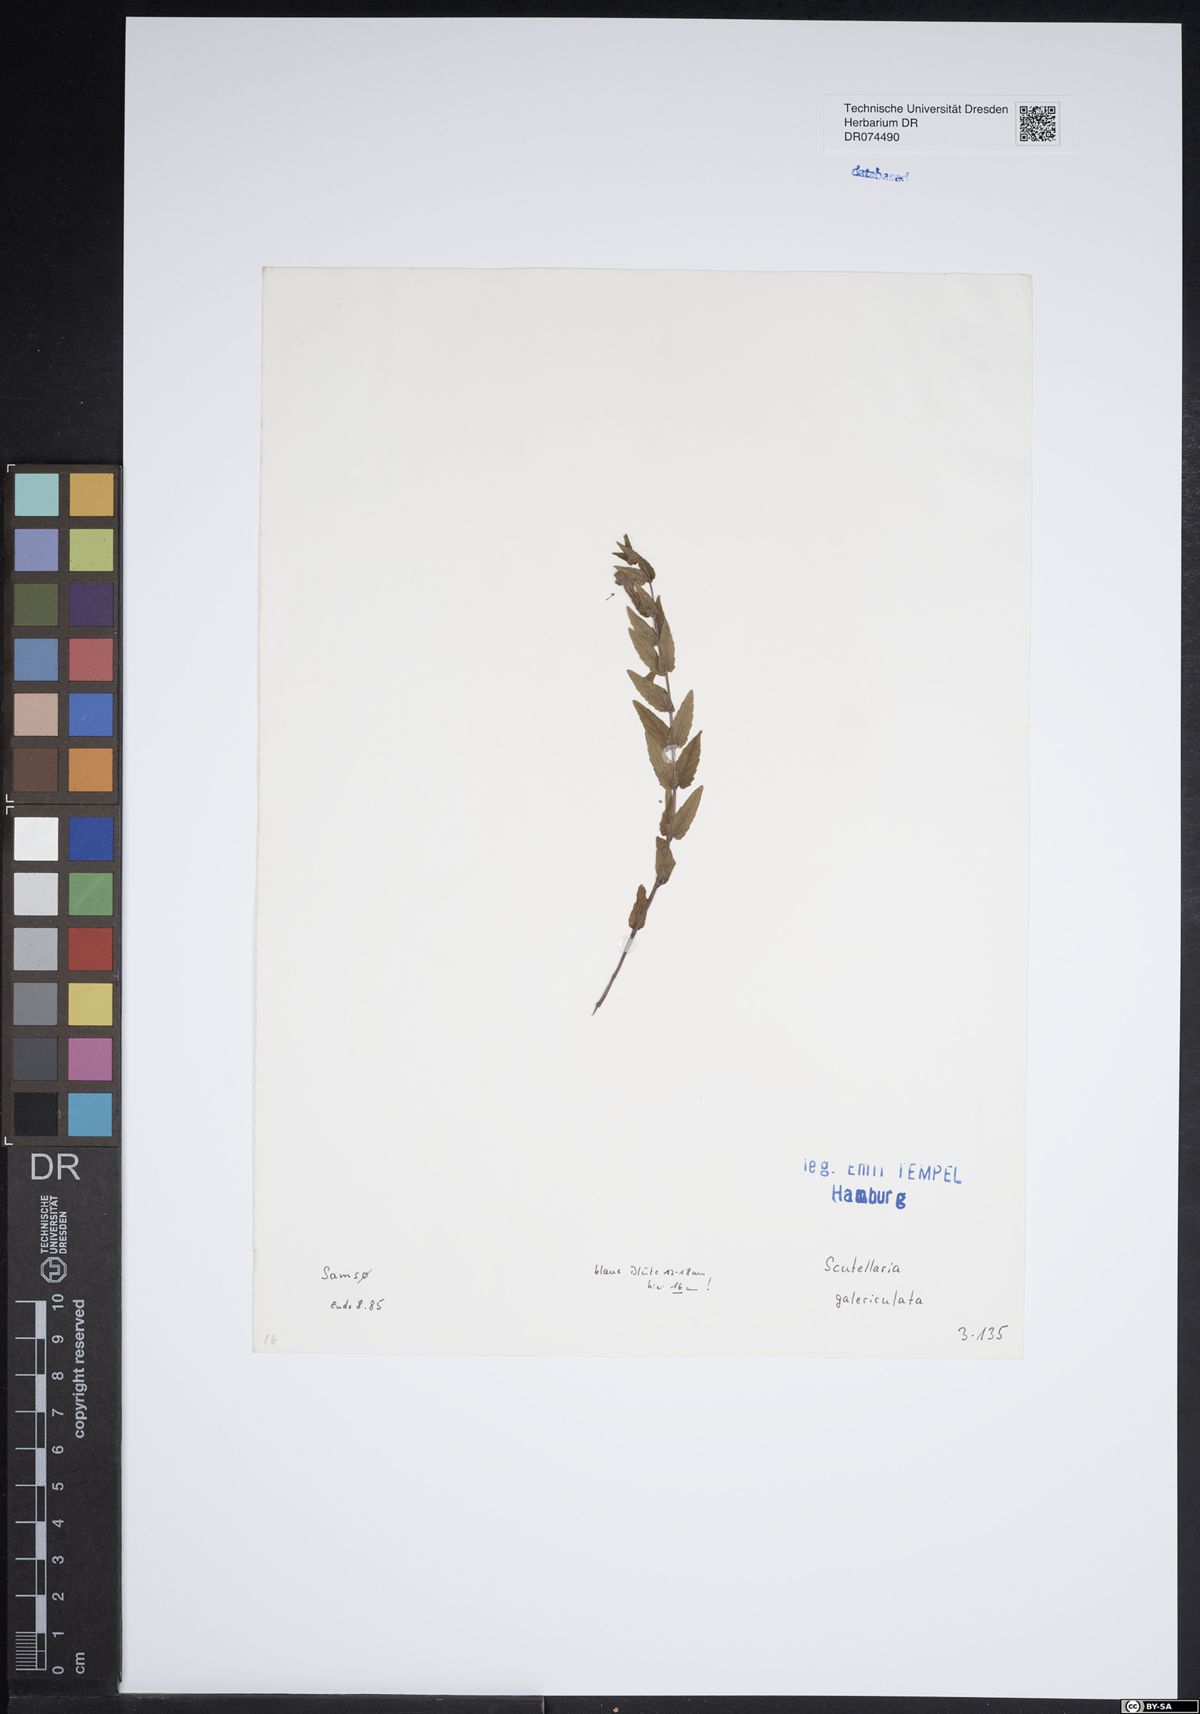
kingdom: Plantae
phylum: Tracheophyta
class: Magnoliopsida
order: Lamiales
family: Lamiaceae
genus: Scutellaria
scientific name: Scutellaria galericulata
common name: Skullcap
